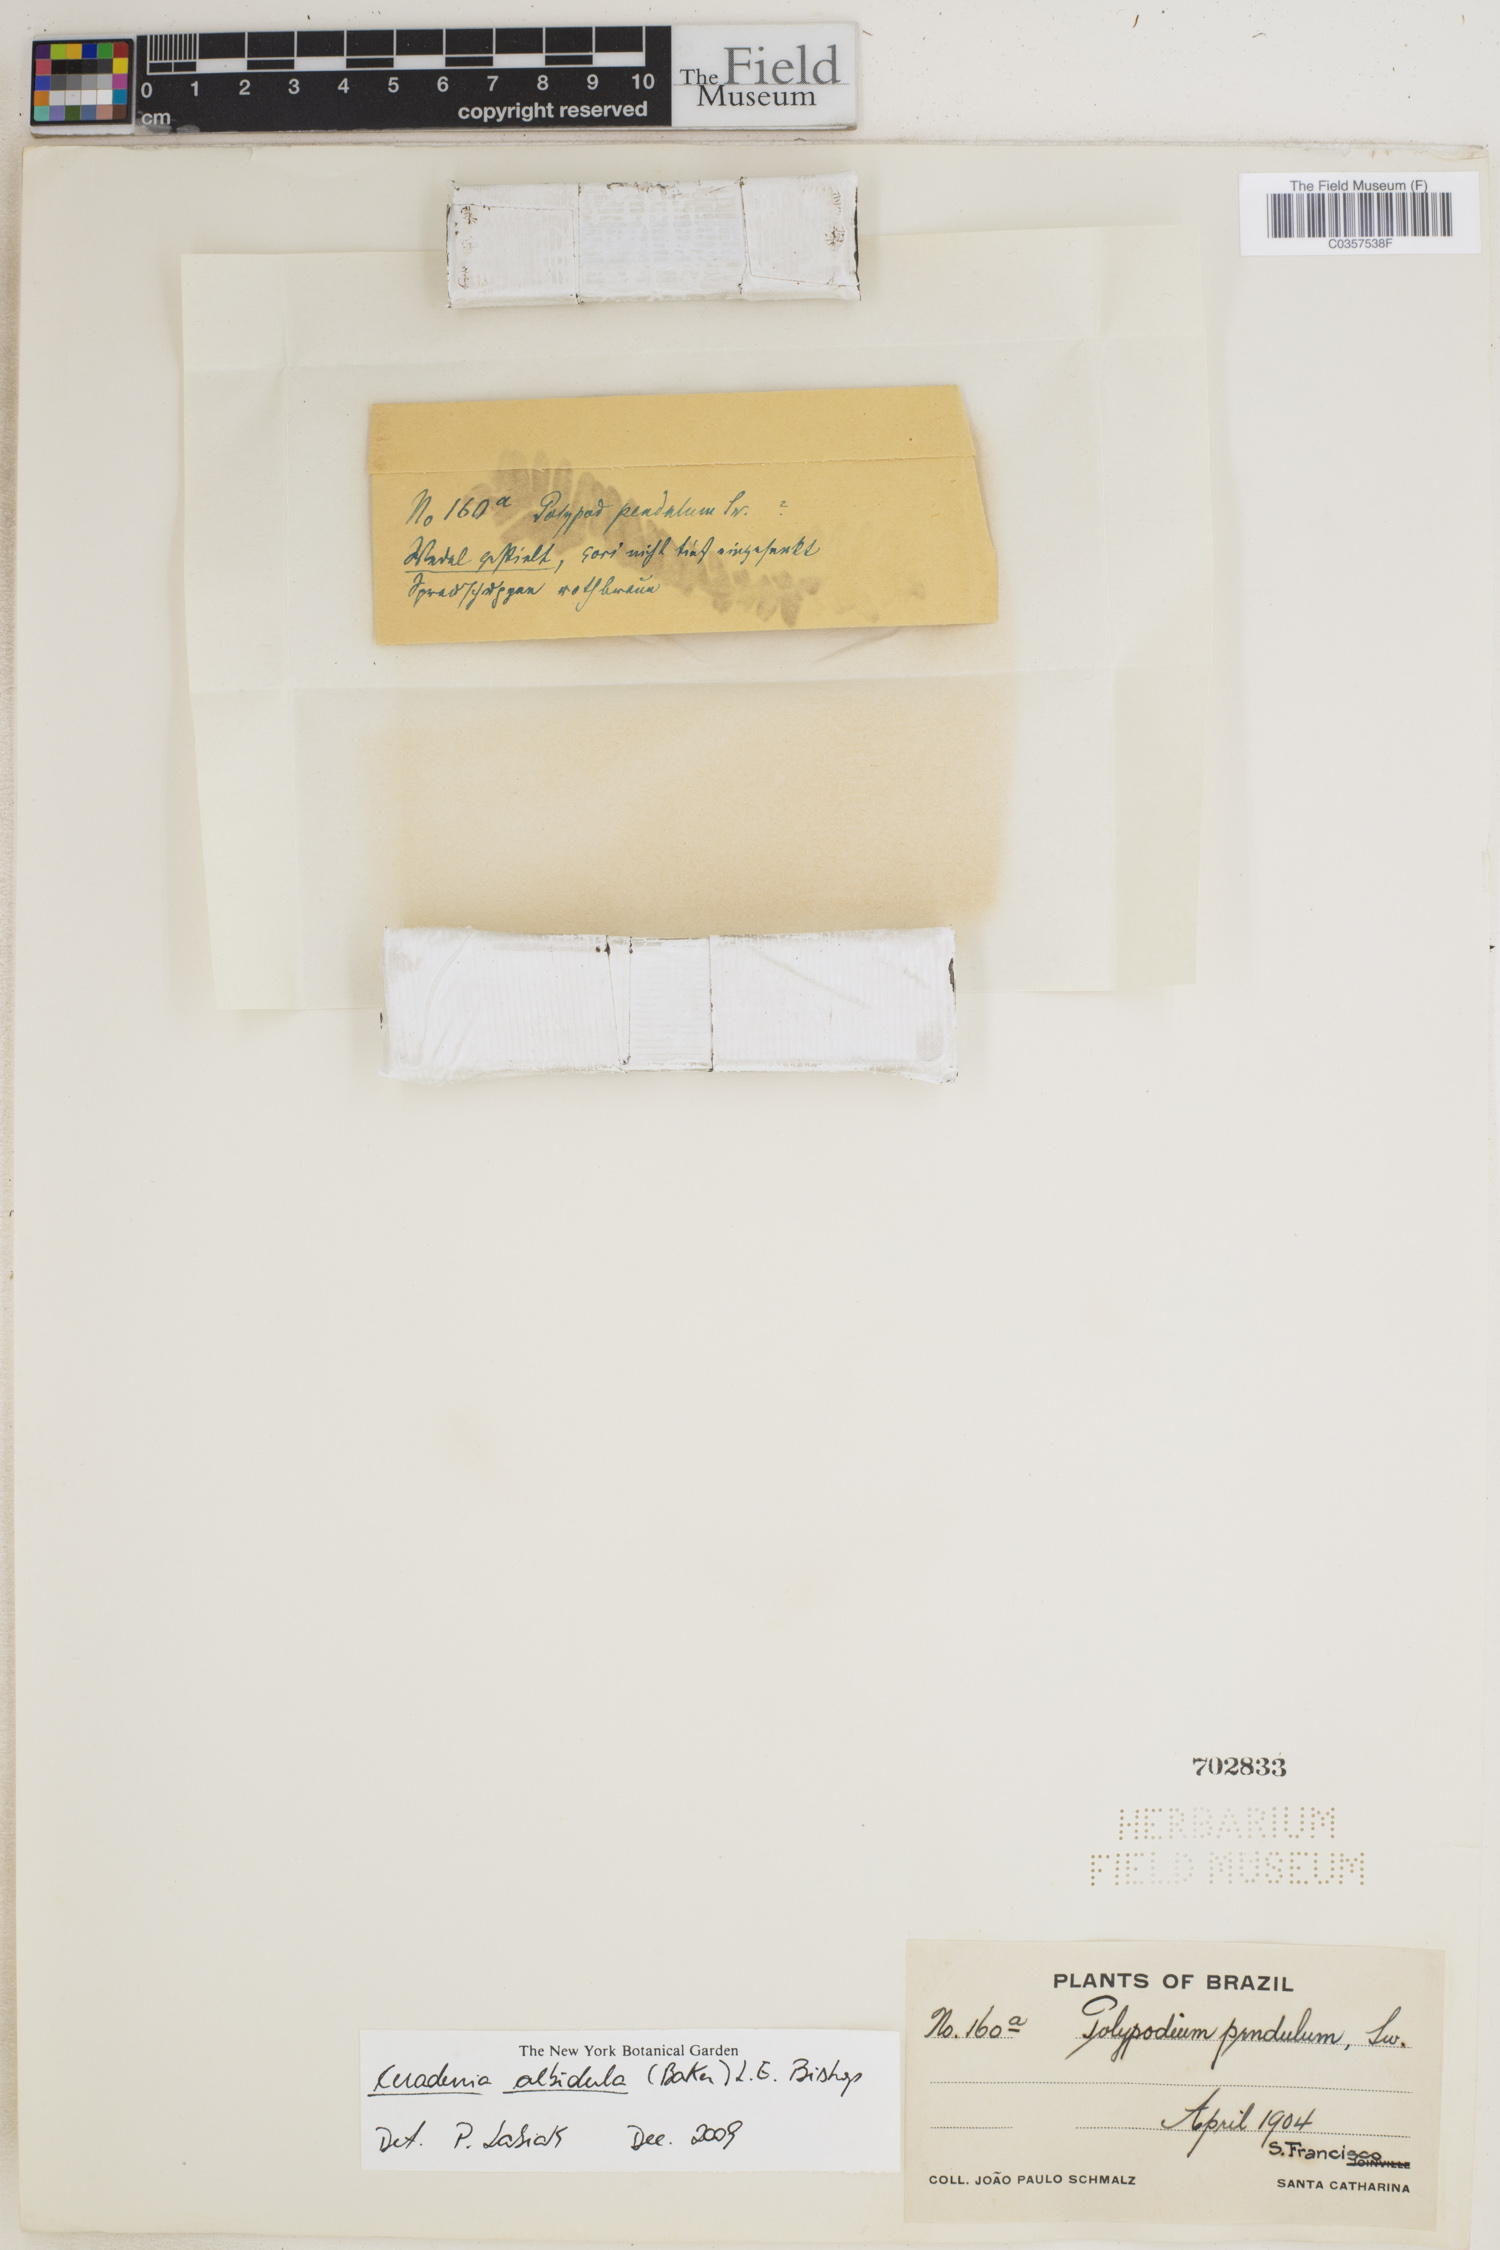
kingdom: Plantae
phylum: Tracheophyta
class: Polypodiopsida
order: Polypodiales
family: Polypodiaceae
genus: Ceradenia
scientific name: Ceradenia albidula
